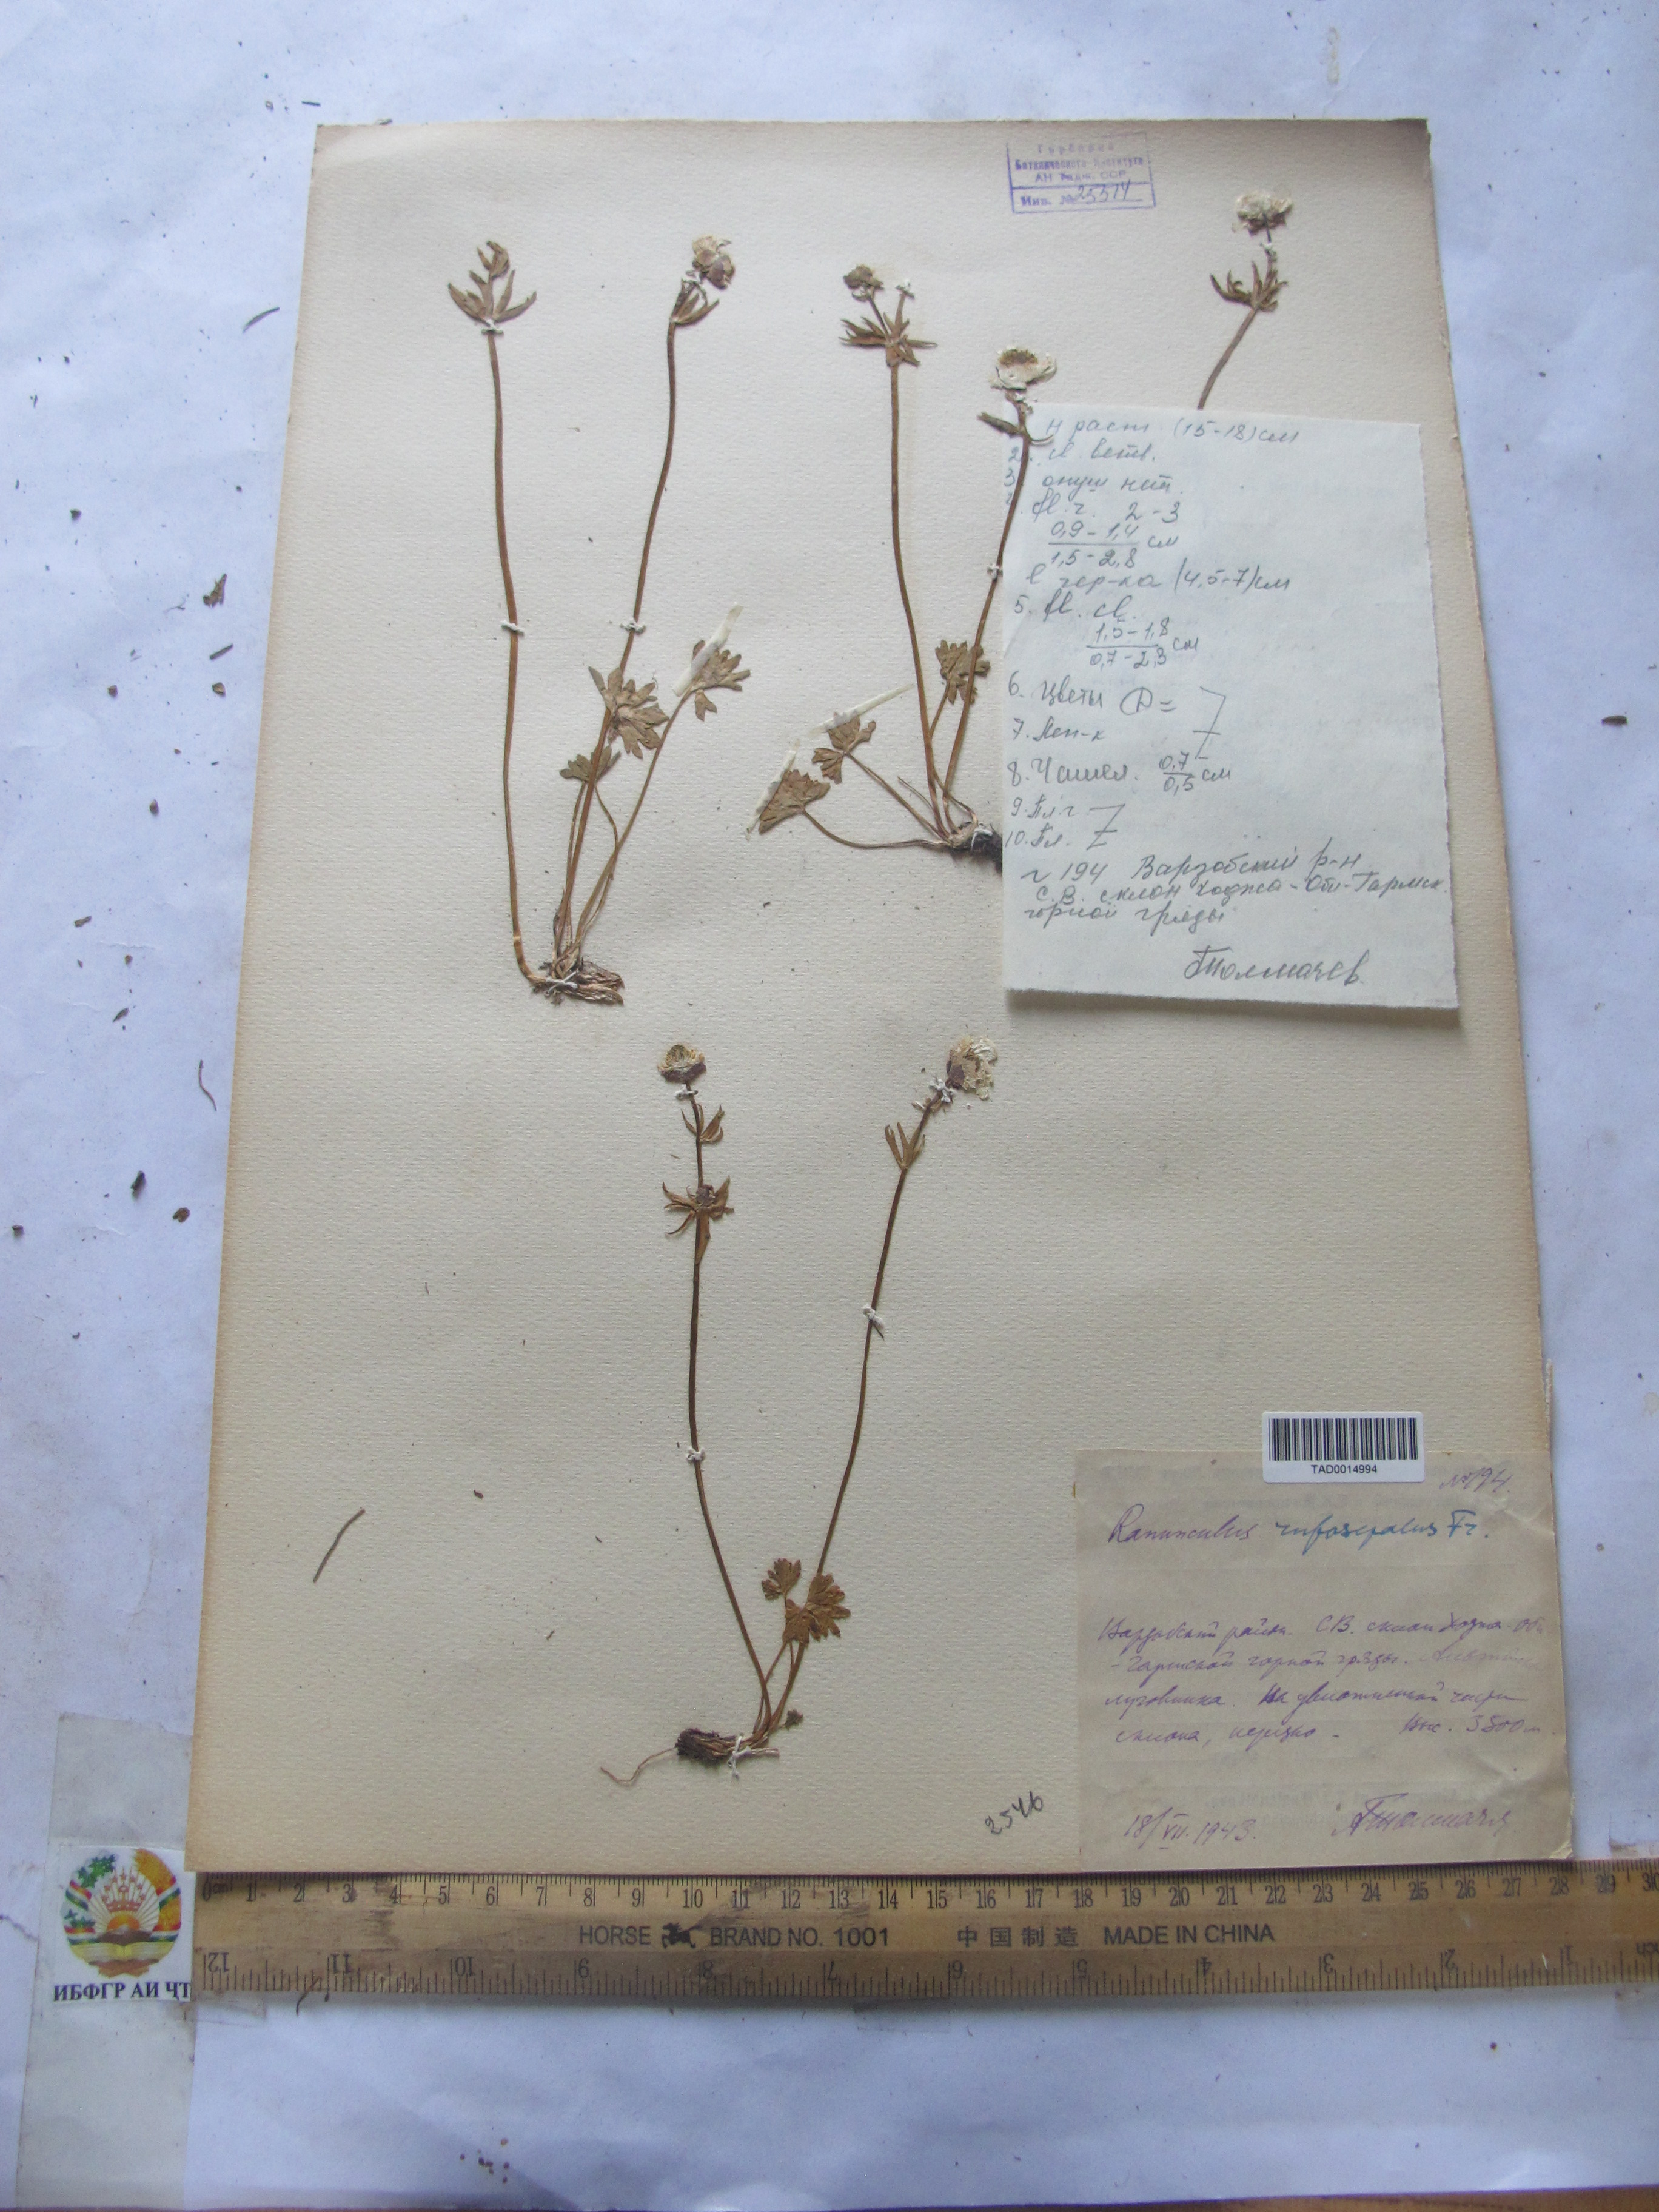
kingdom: Plantae
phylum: Tracheophyta
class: Magnoliopsida
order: Ranunculales
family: Ranunculaceae
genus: Ranunculus
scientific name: Ranunculus rufosepalus
